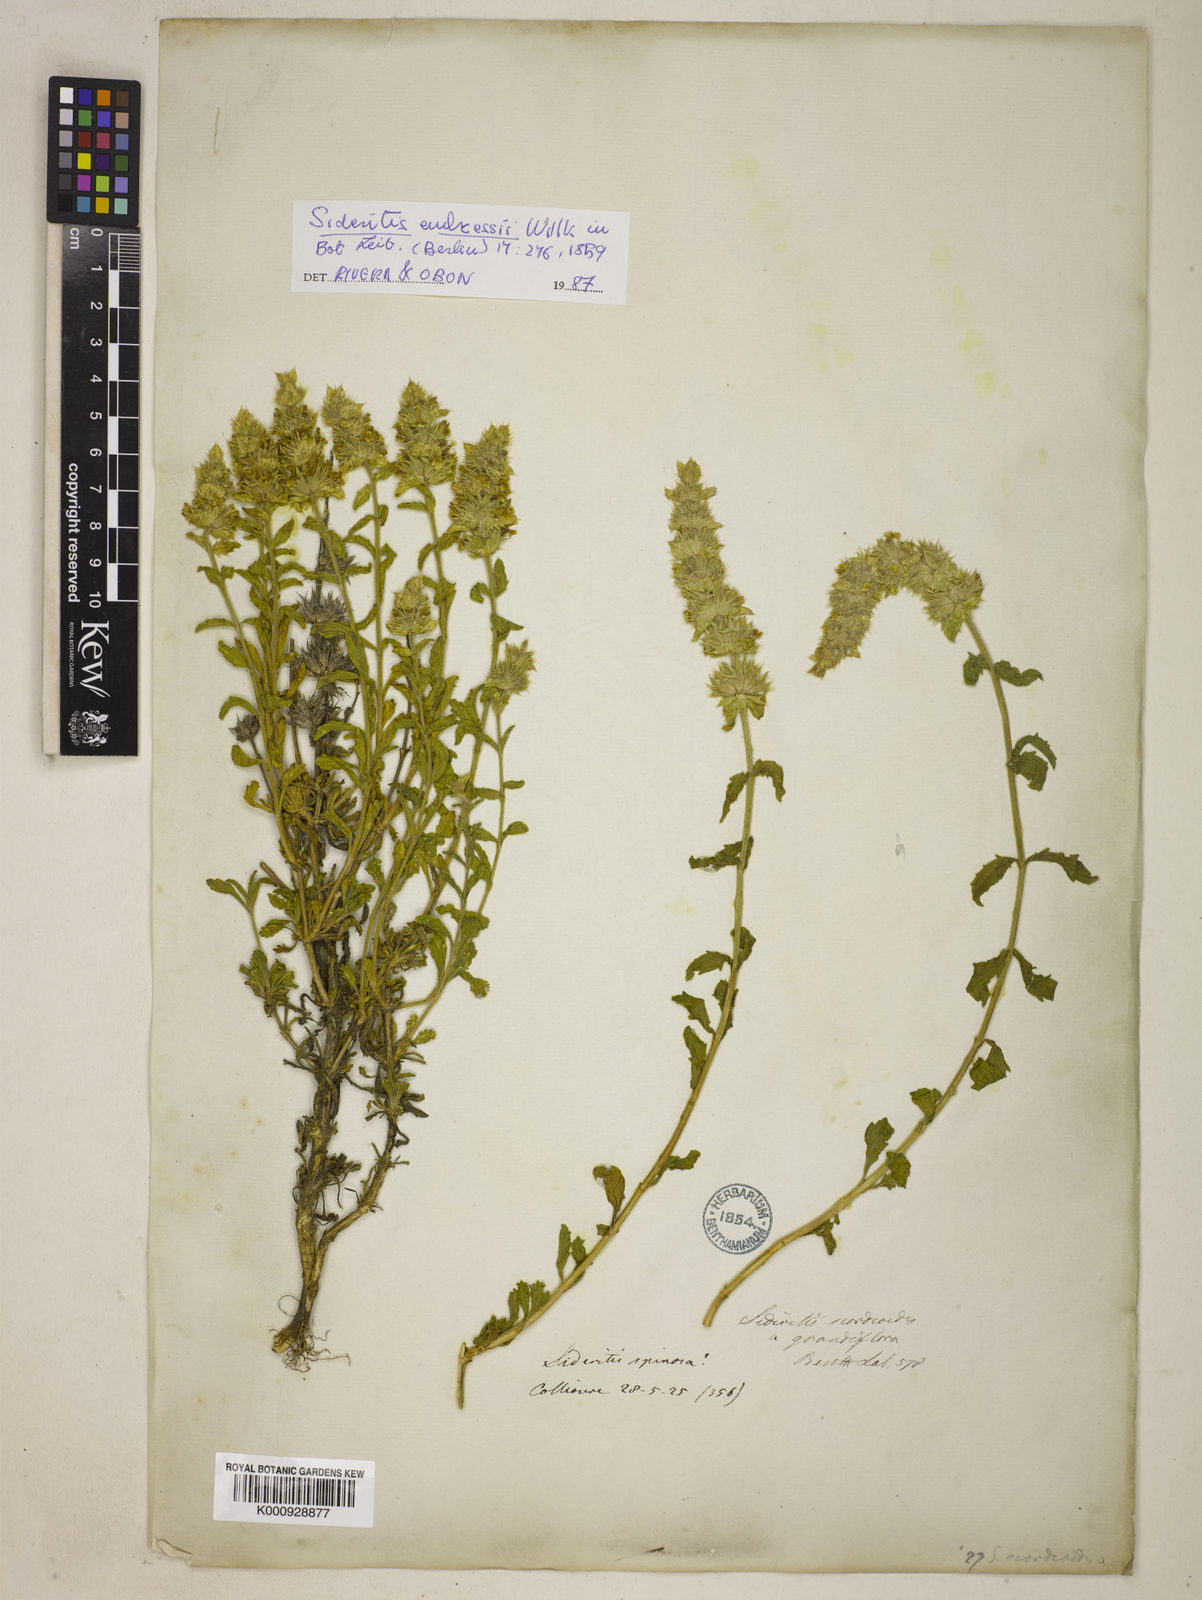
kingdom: Plantae
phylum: Tracheophyta
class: Magnoliopsida
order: Lamiales
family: Lamiaceae
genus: Sideritis
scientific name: Sideritis endressii
